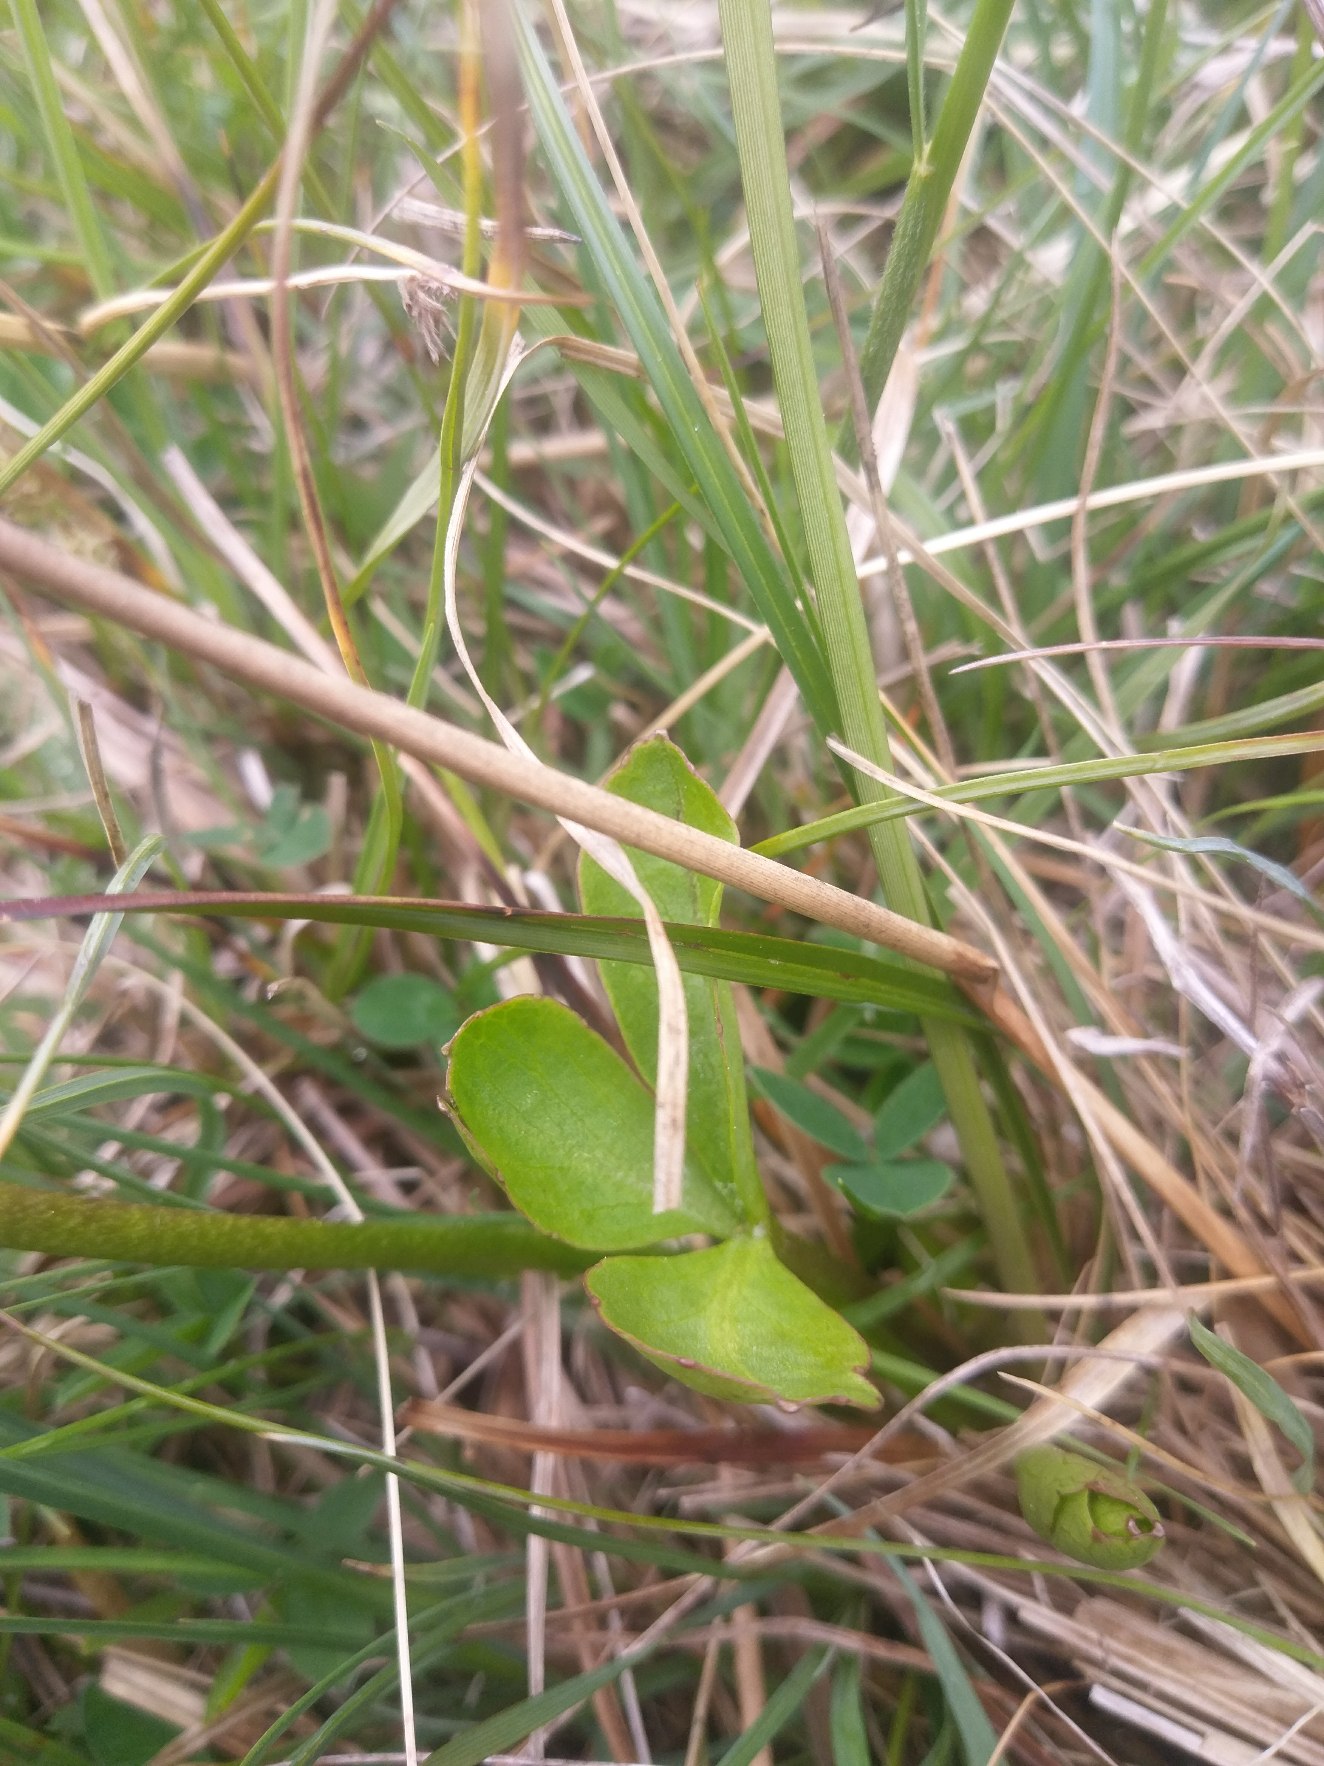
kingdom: Plantae
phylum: Tracheophyta
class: Magnoliopsida
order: Asterales
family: Menyanthaceae
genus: Menyanthes
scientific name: Menyanthes trifoliata
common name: Bukkeblad
